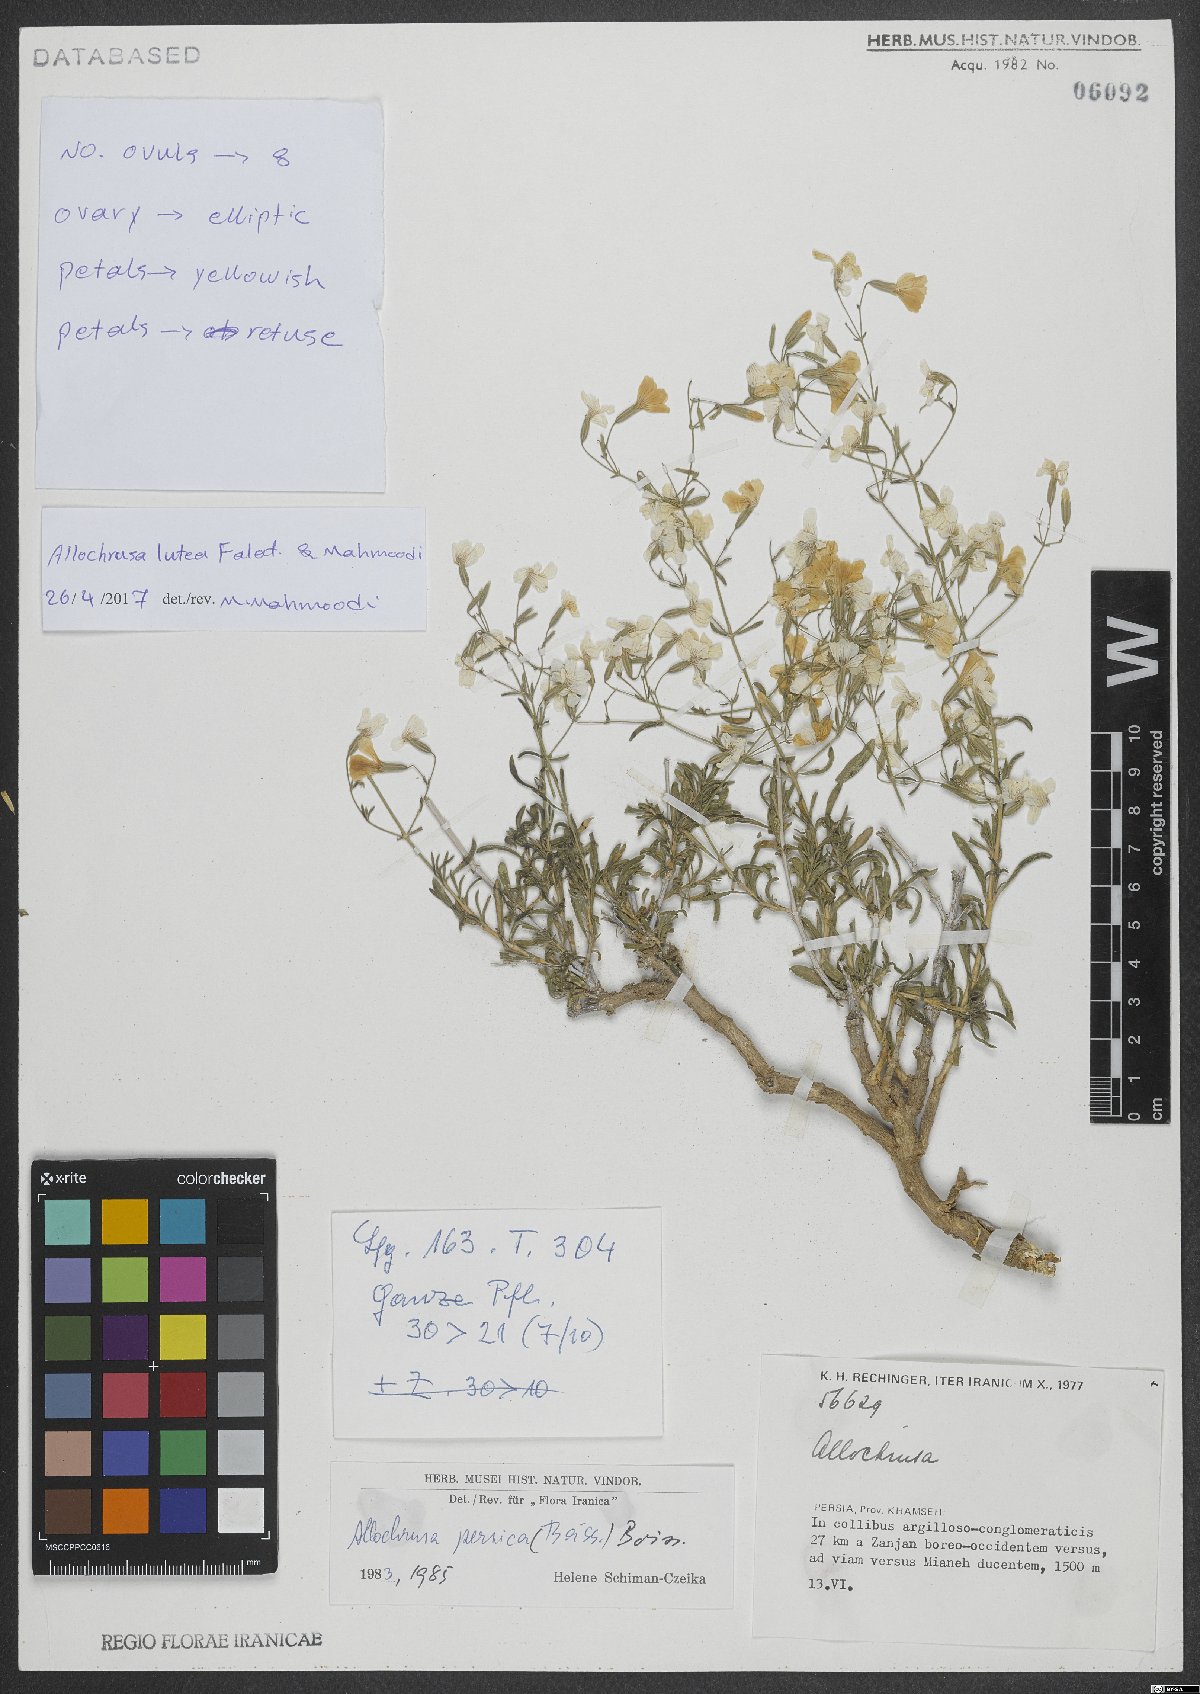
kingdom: Plantae
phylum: Tracheophyta
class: Magnoliopsida
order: Caryophyllales
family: Caryophyllaceae
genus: Acanthophyllum
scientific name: Acanthophyllum luteum
